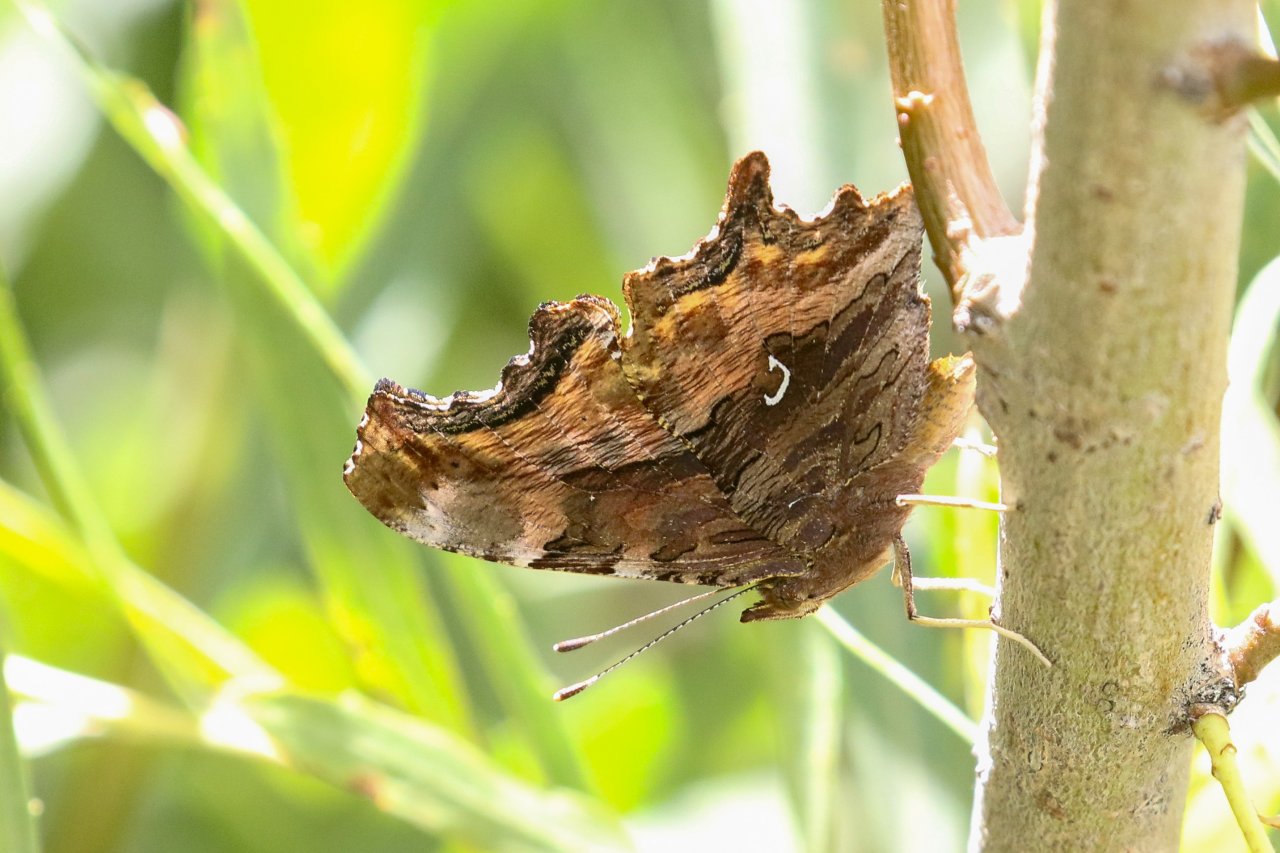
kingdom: Animalia
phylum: Arthropoda
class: Insecta
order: Lepidoptera
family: Nymphalidae
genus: Polygonia
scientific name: Polygonia satyrus
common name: Satyr Comma
